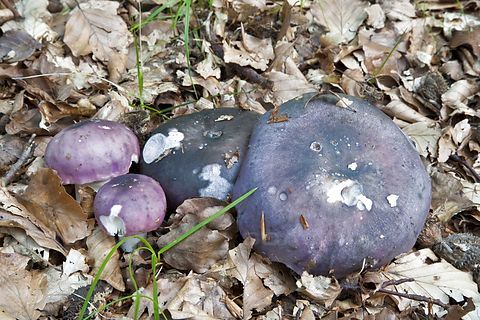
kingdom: Fungi
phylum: Basidiomycota
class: Agaricomycetes
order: Russulales
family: Russulaceae
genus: Russula
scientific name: Russula cyanoxantha
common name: broget skørhat
